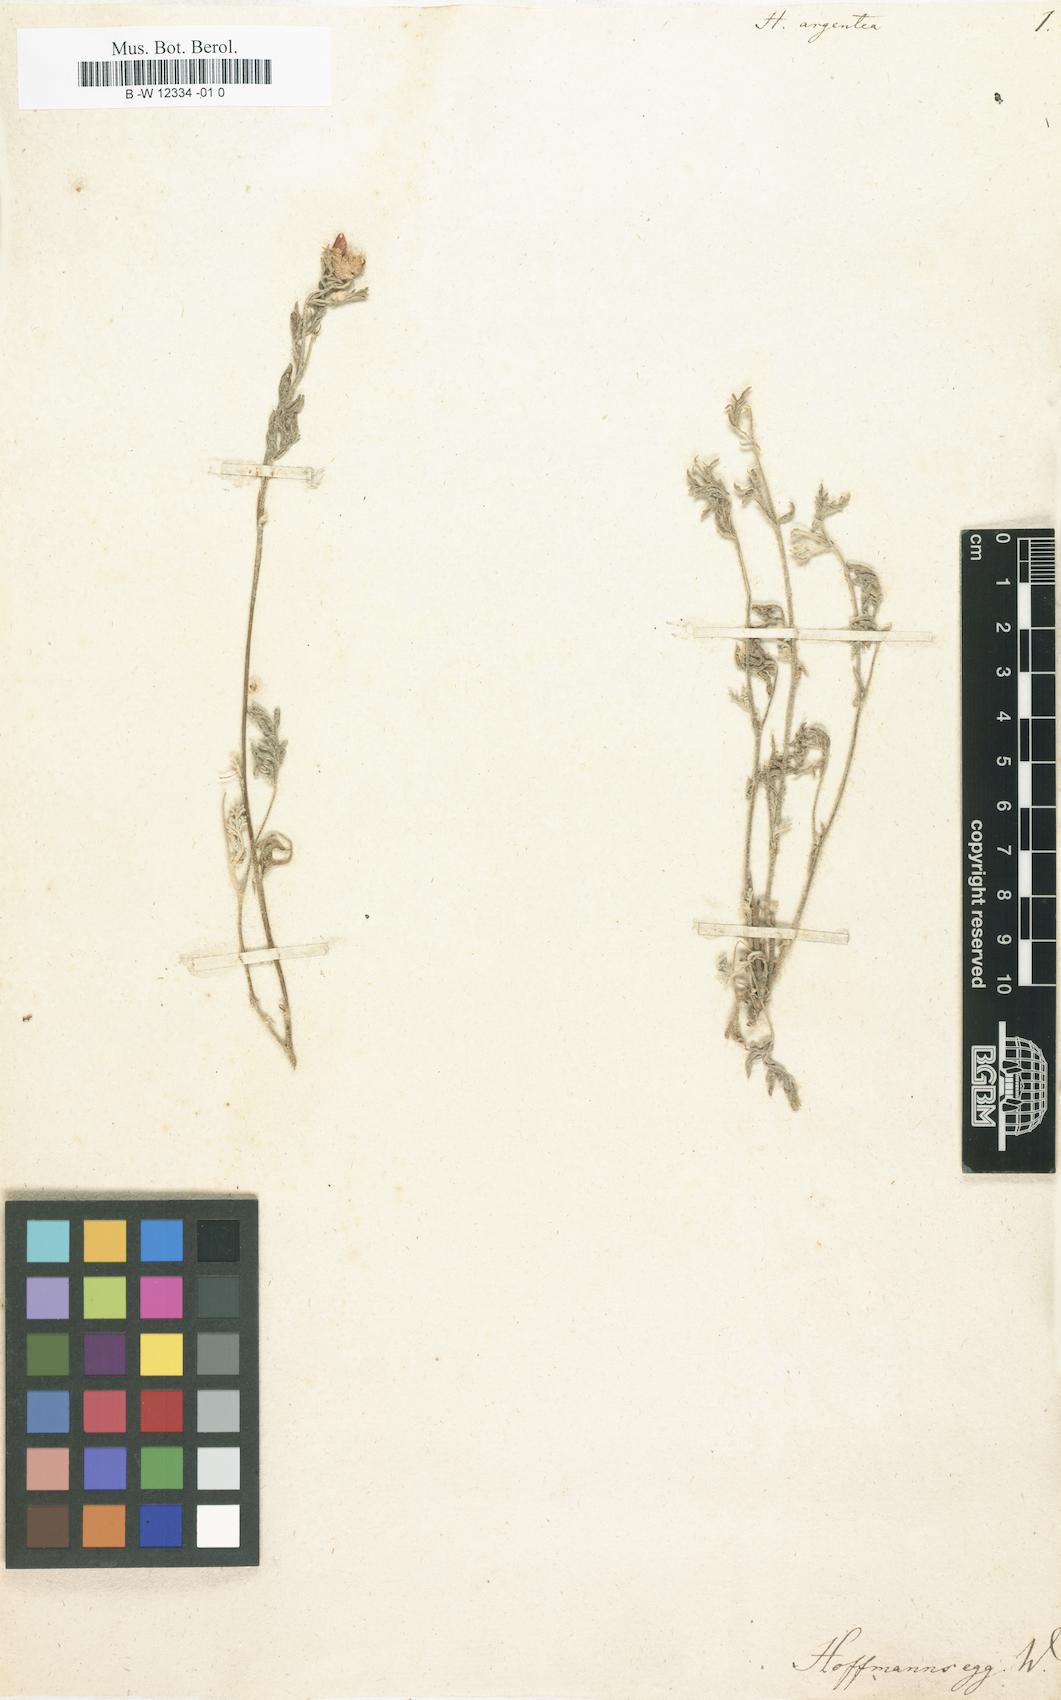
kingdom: Plantae
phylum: Tracheophyta
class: Magnoliopsida
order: Malvales
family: Malvaceae
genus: Hermannia
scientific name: Hermannia argentea
